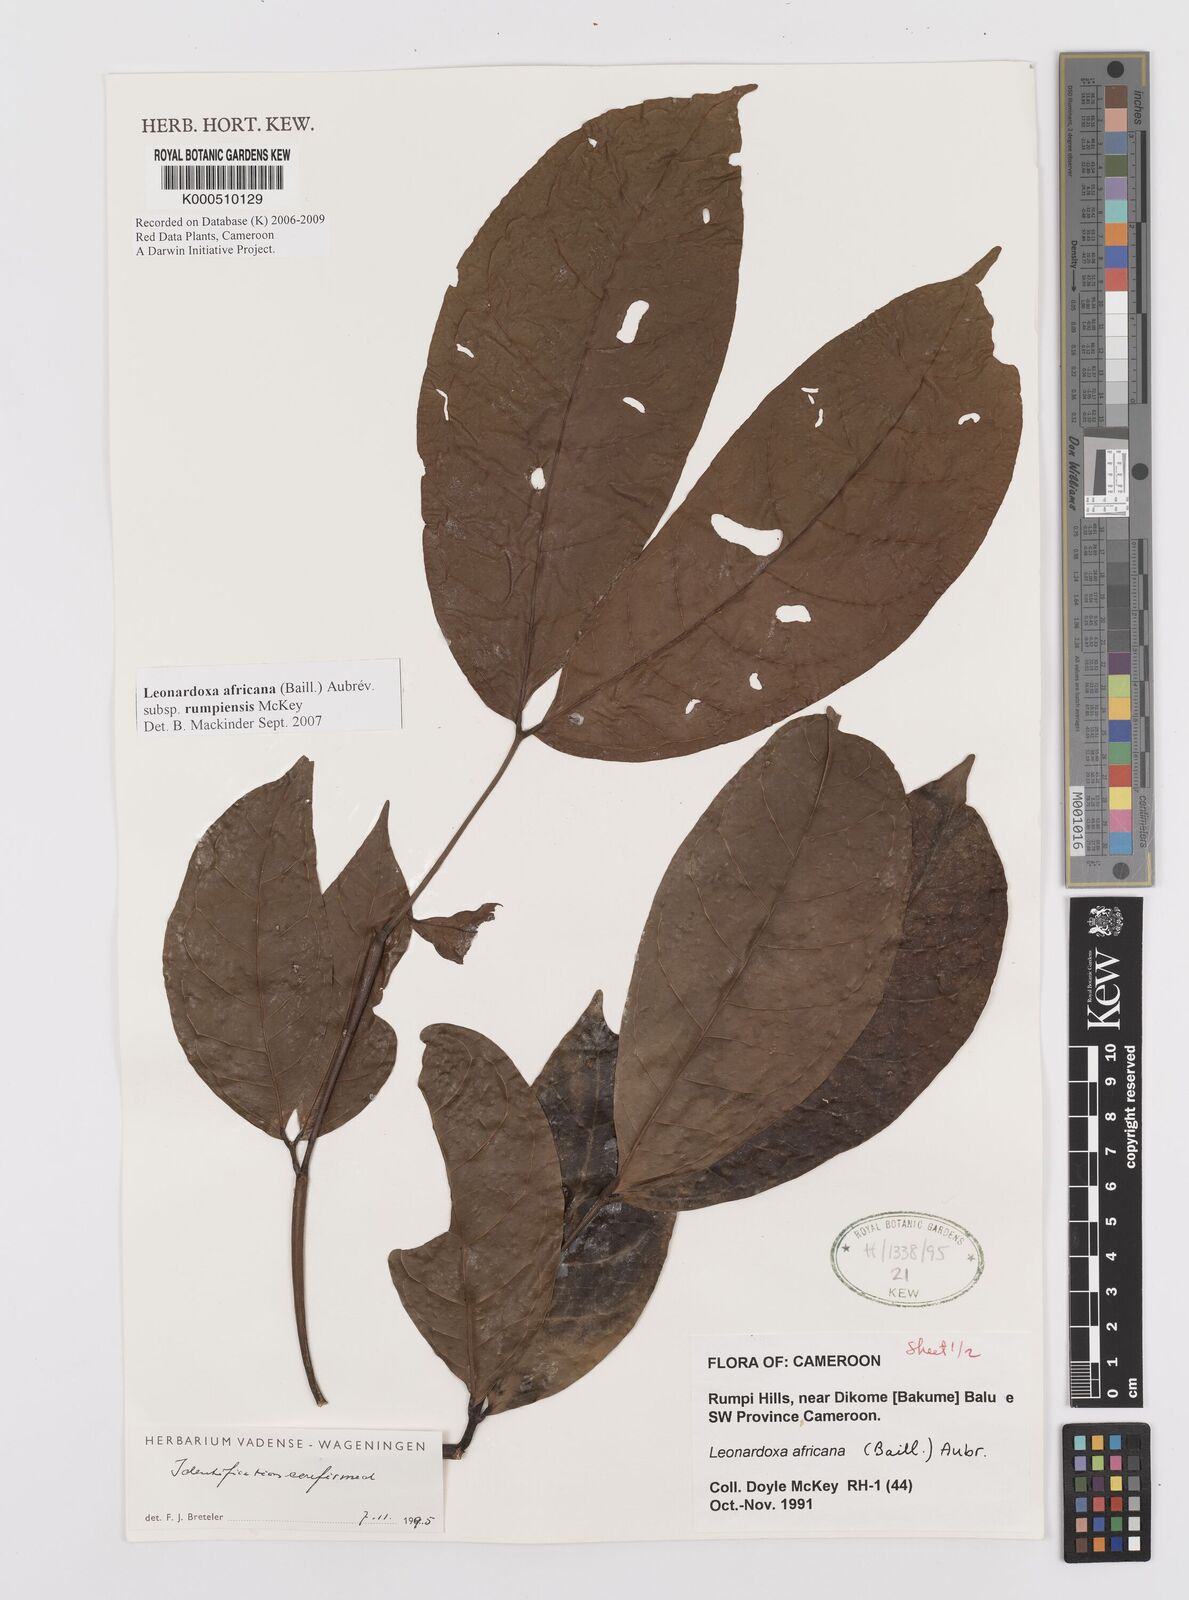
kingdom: Plantae
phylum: Tracheophyta
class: Magnoliopsida
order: Fabales
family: Fabaceae
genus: Leonardoxa
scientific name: Leonardoxa
